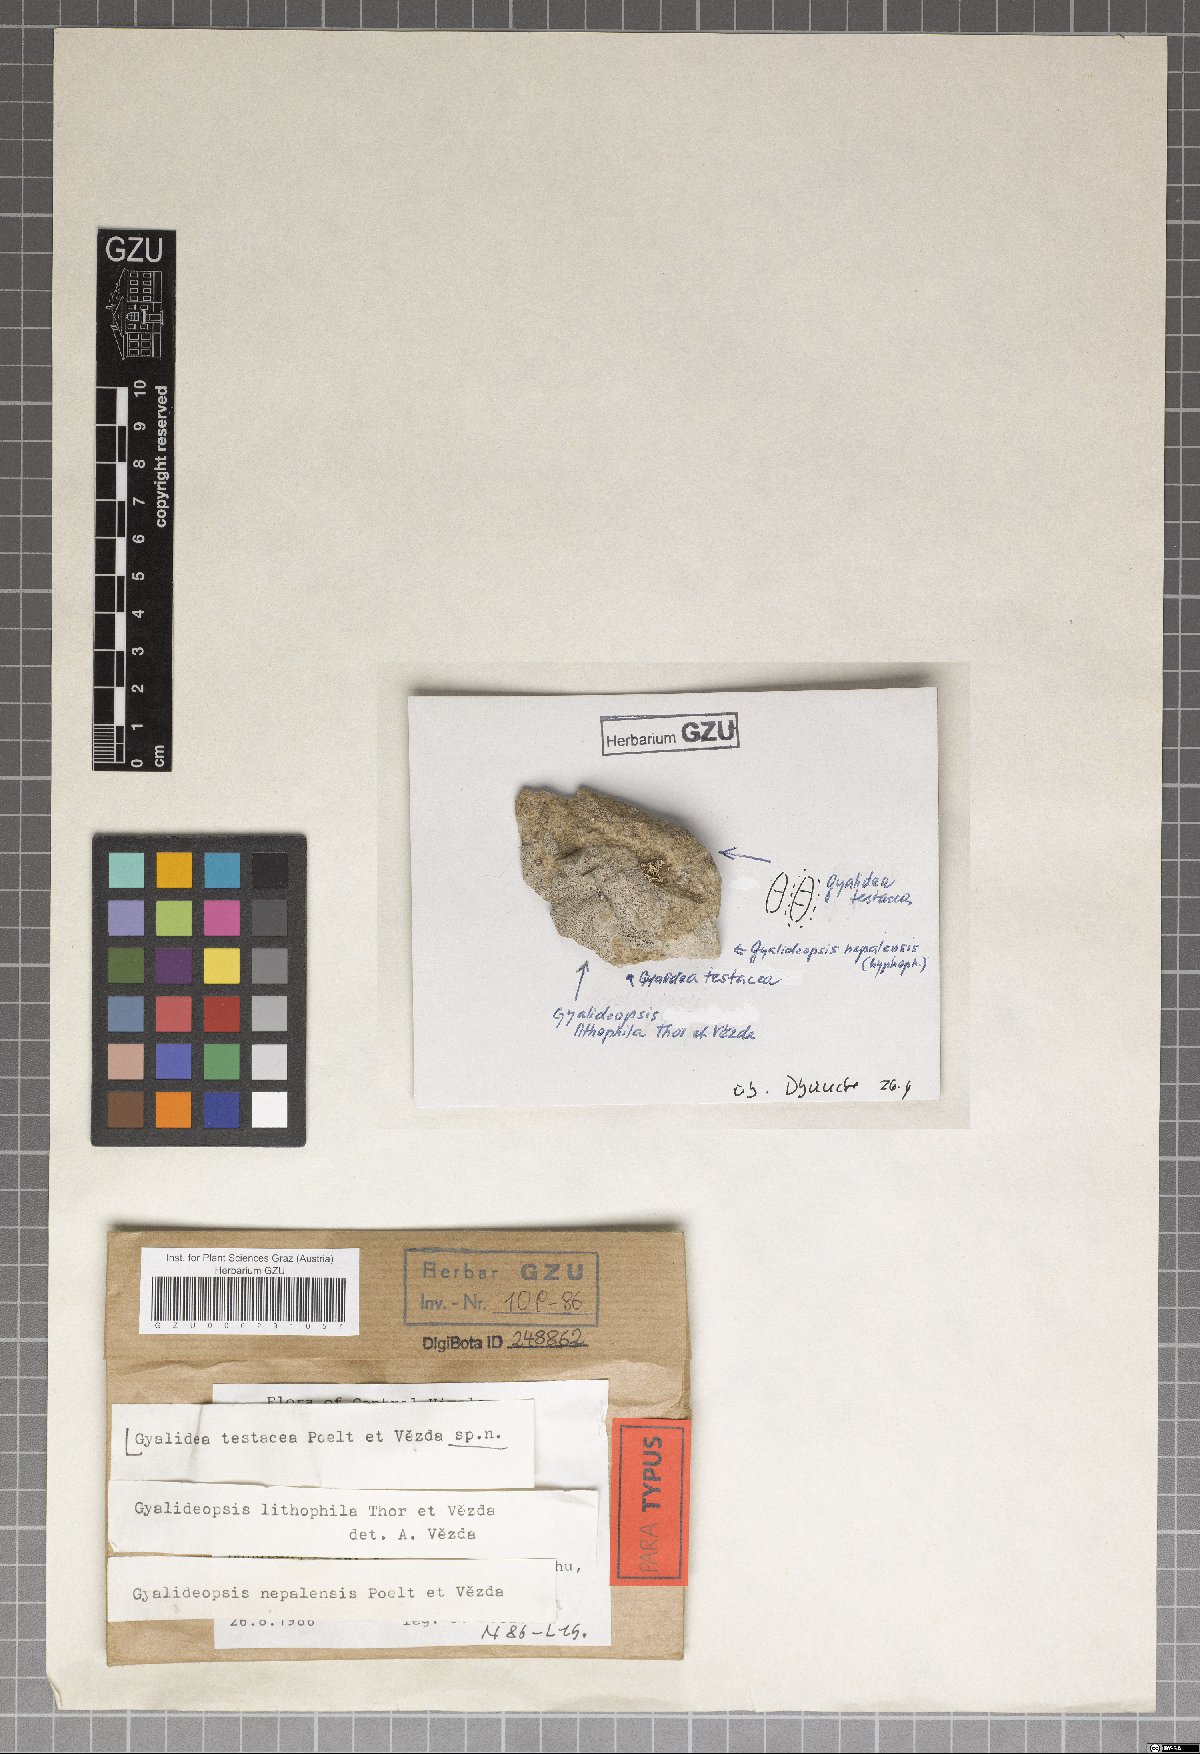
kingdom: Fungi
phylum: Ascomycota
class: Lecanoromycetes
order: Ostropales
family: Gomphillaceae
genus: Gyalidea
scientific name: Gyalidea testacea
